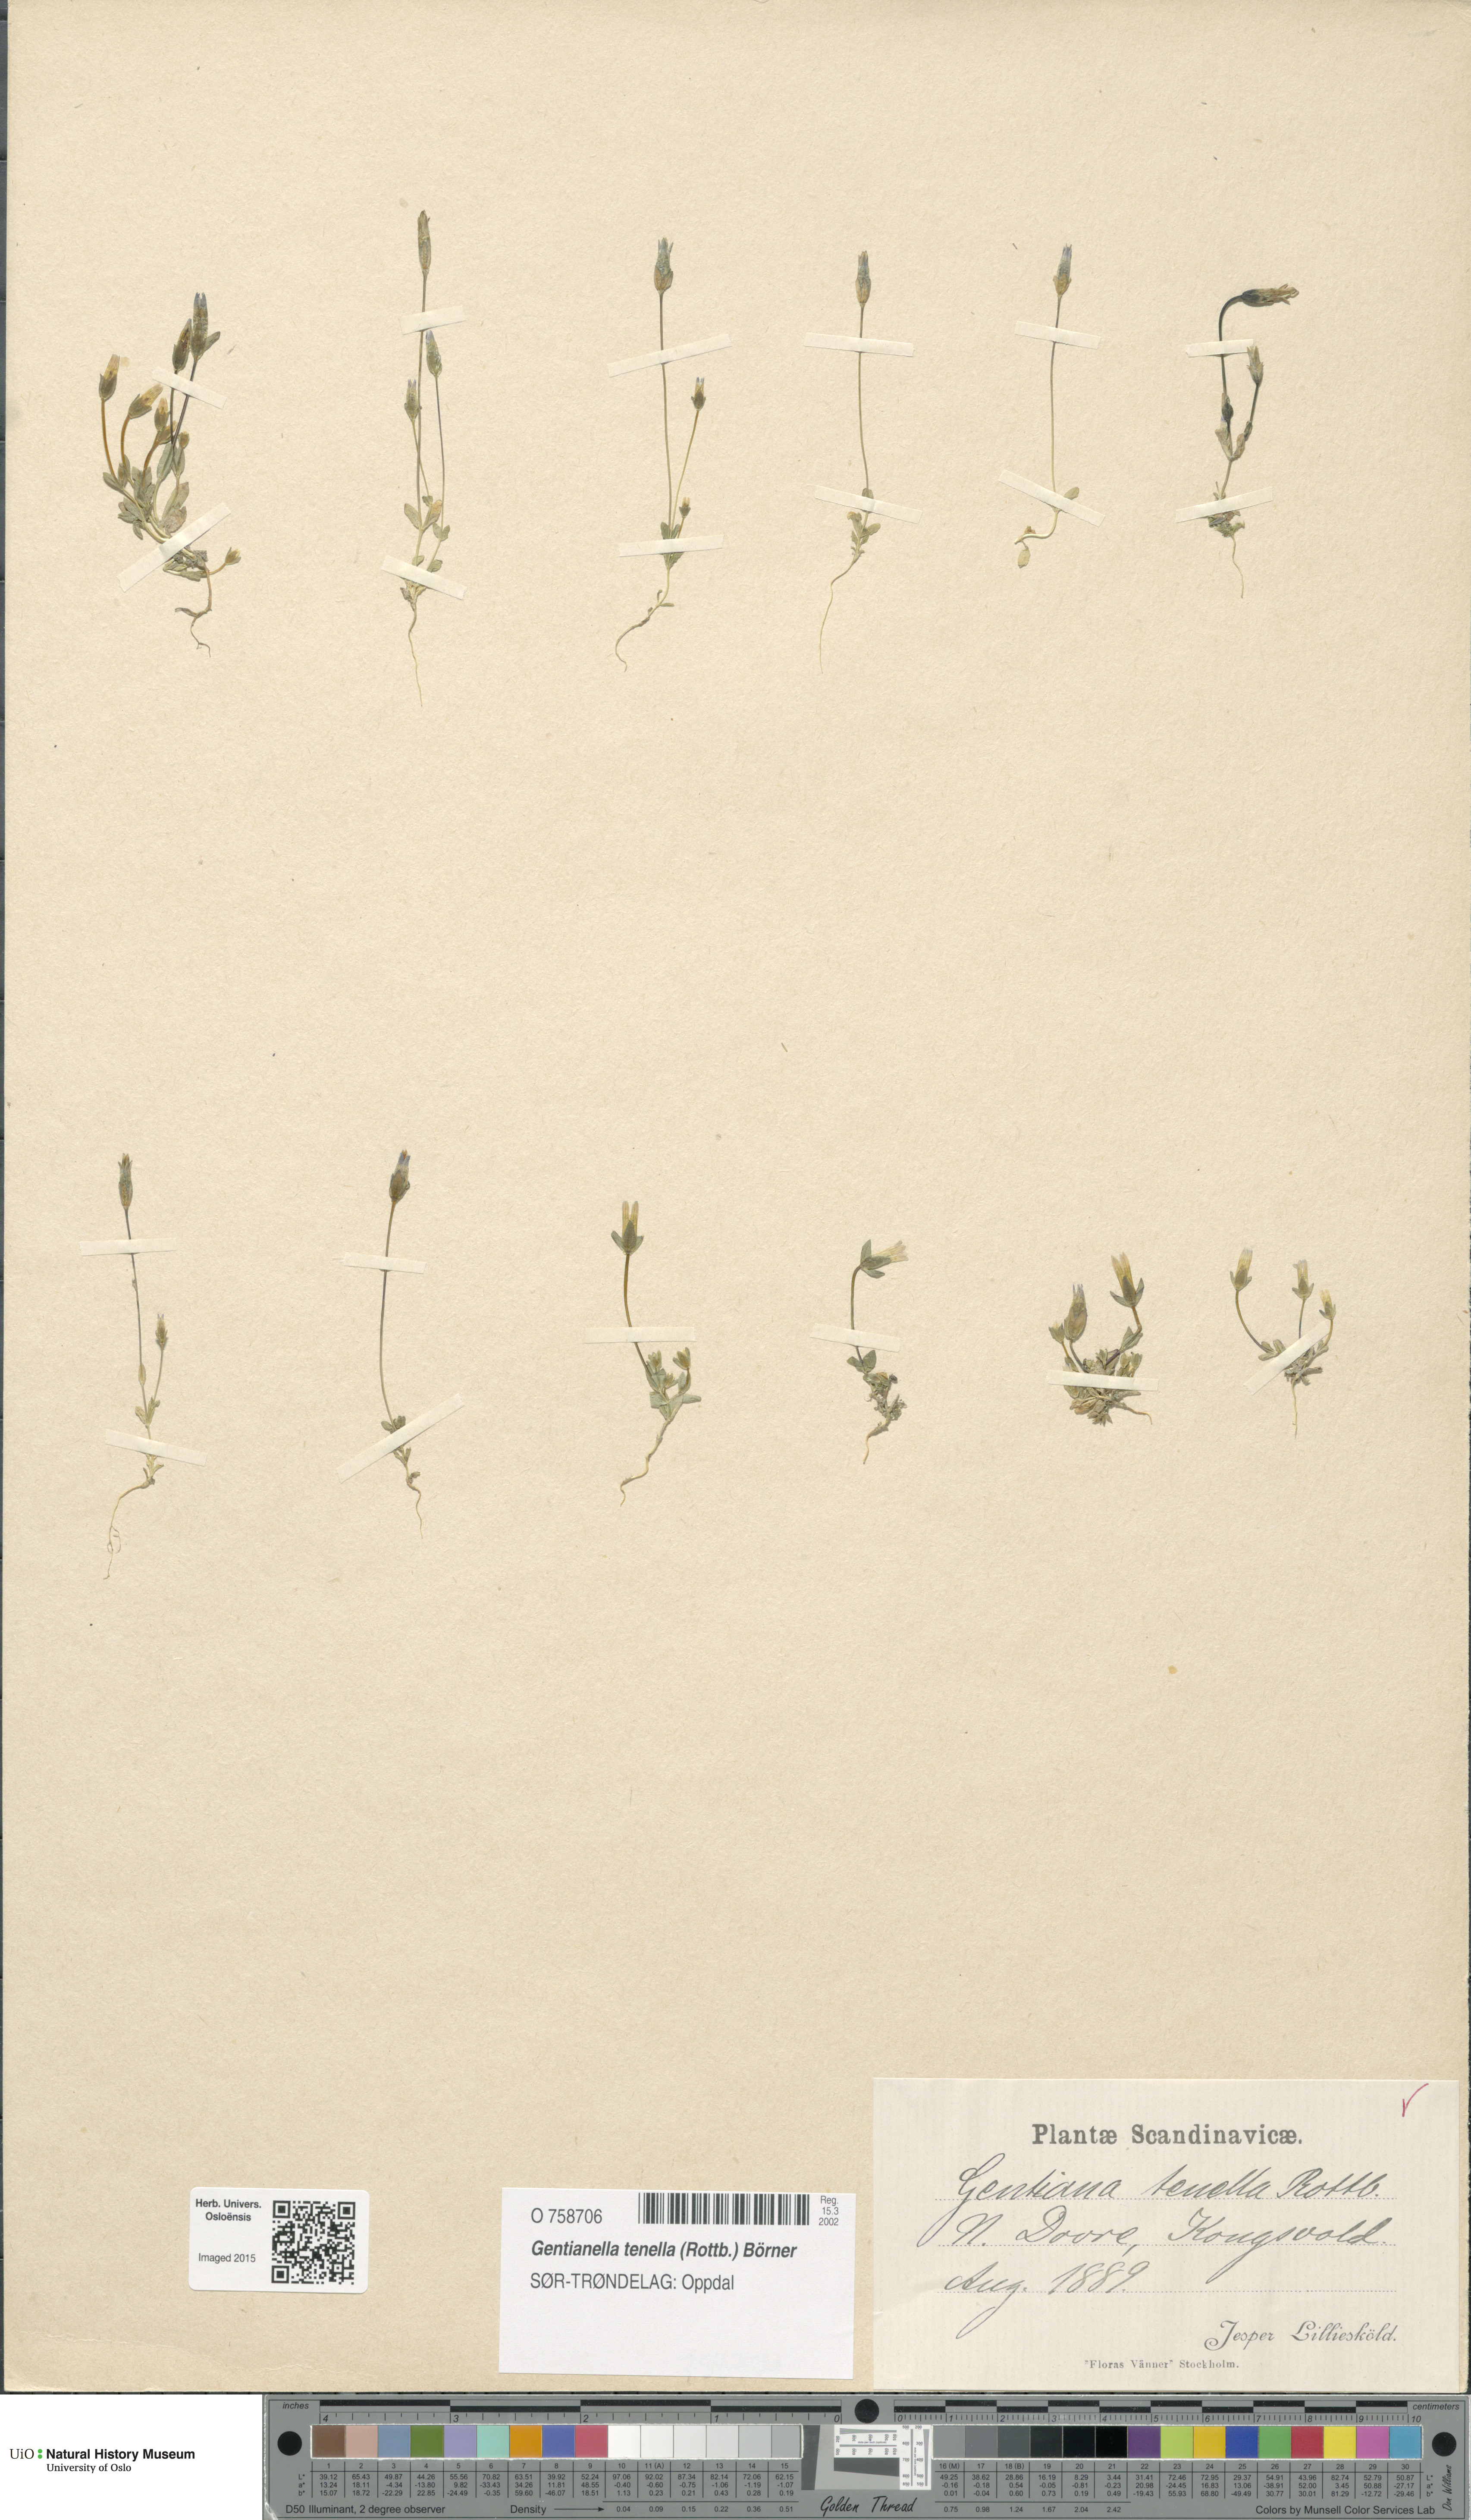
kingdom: Plantae
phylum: Tracheophyta
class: Magnoliopsida
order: Gentianales
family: Gentianaceae
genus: Comastoma
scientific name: Comastoma tenellum
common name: Dane's dwarf gentian
